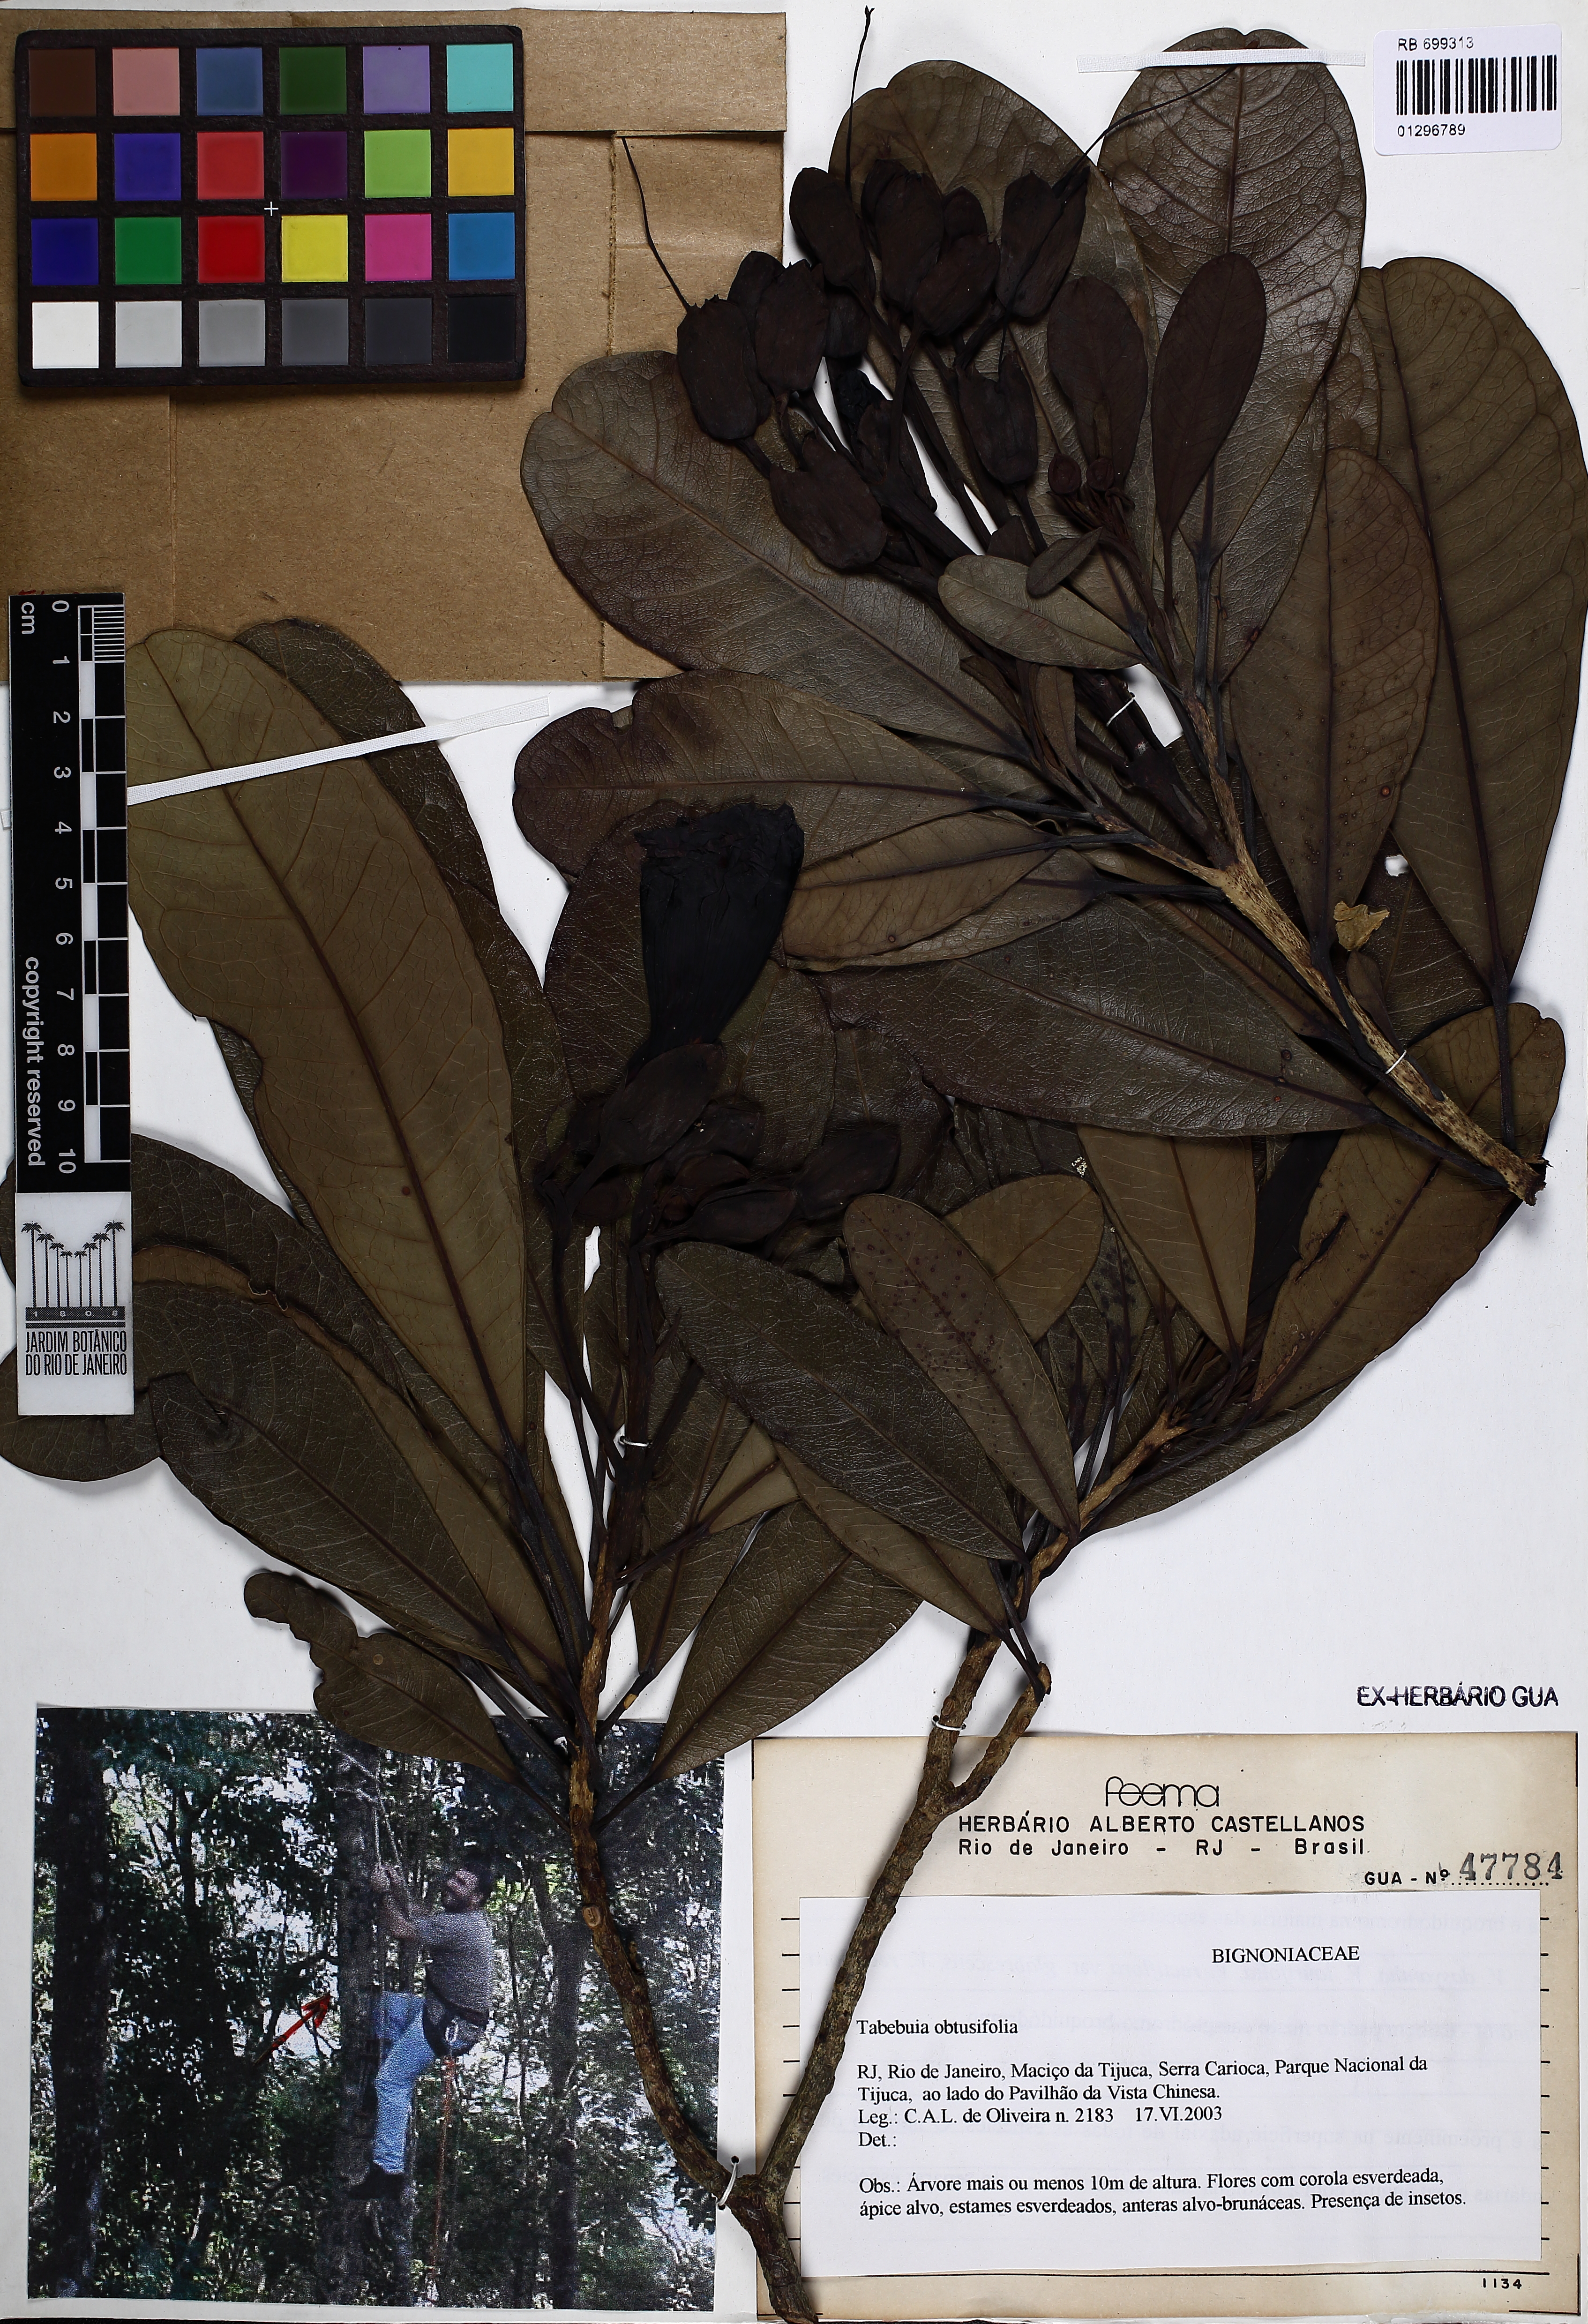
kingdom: Plantae
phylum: Tracheophyta
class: Magnoliopsida
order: Lamiales
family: Bignoniaceae
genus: Tabebuia
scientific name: Tabebuia obtusifolia
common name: Guadeloupe trumpet-tree
